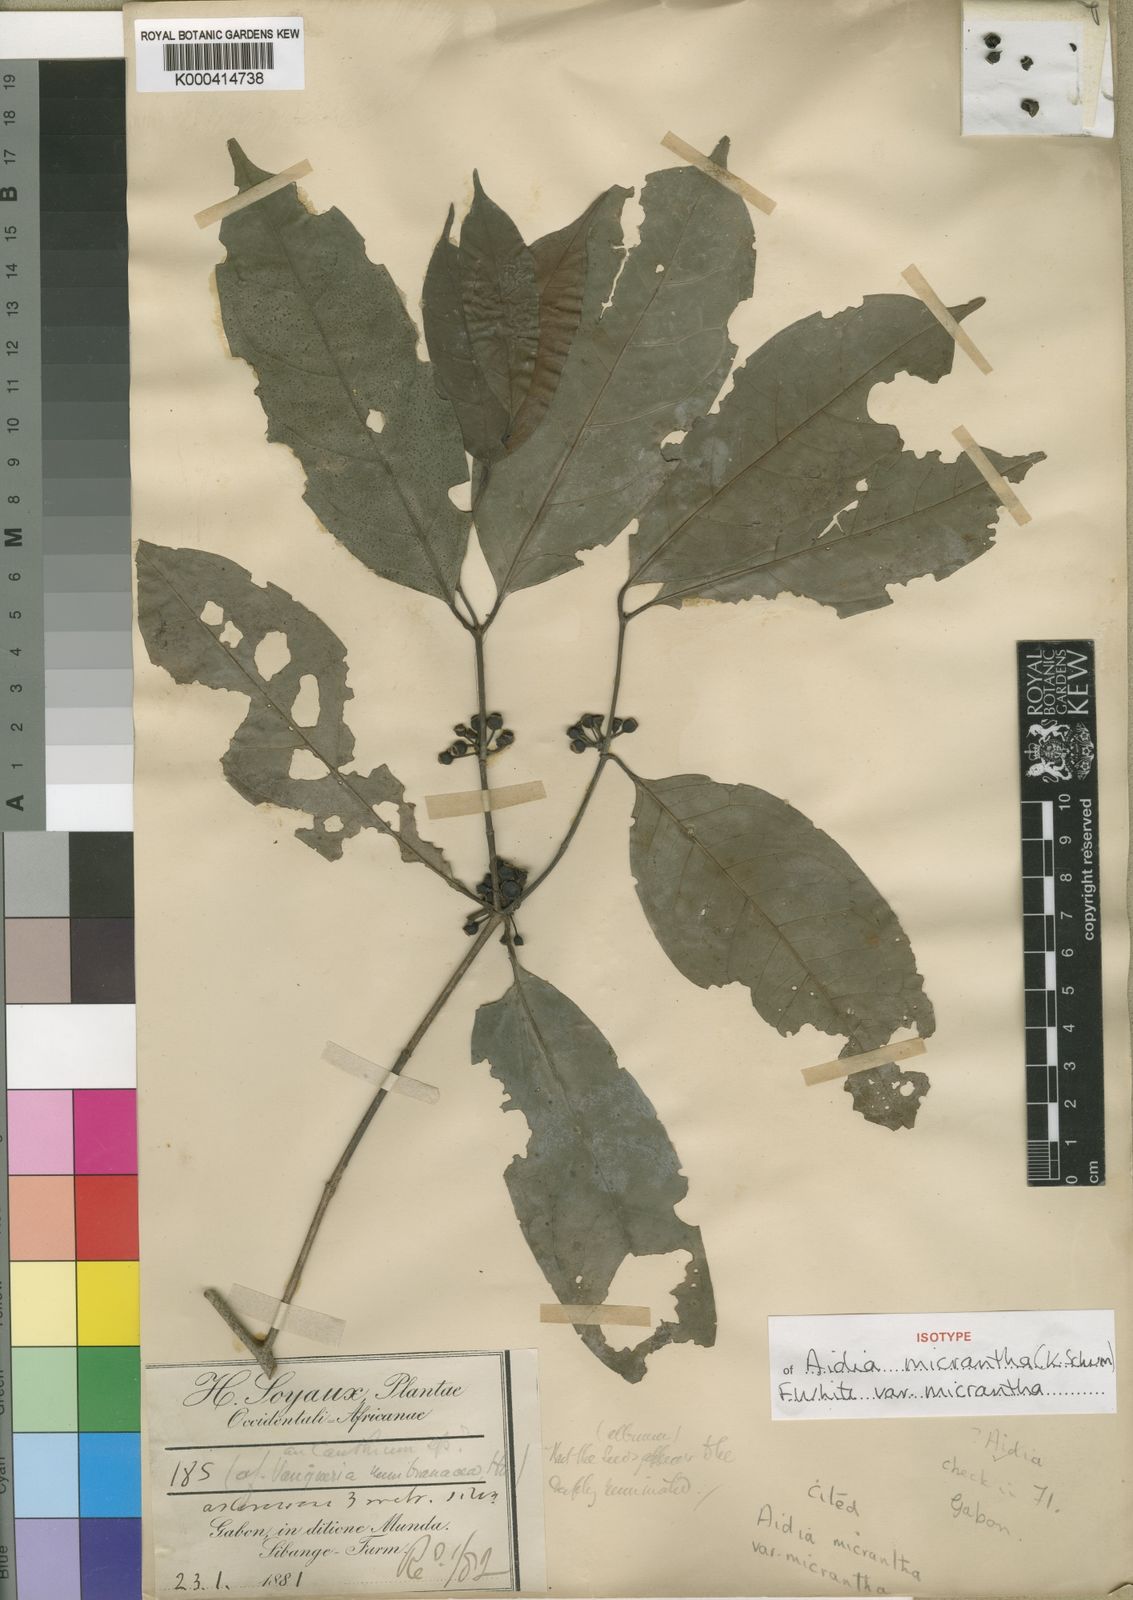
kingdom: Plantae
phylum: Tracheophyta
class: Magnoliopsida
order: Gentianales
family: Rubiaceae
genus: Aidia
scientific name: Aidia micrantha
